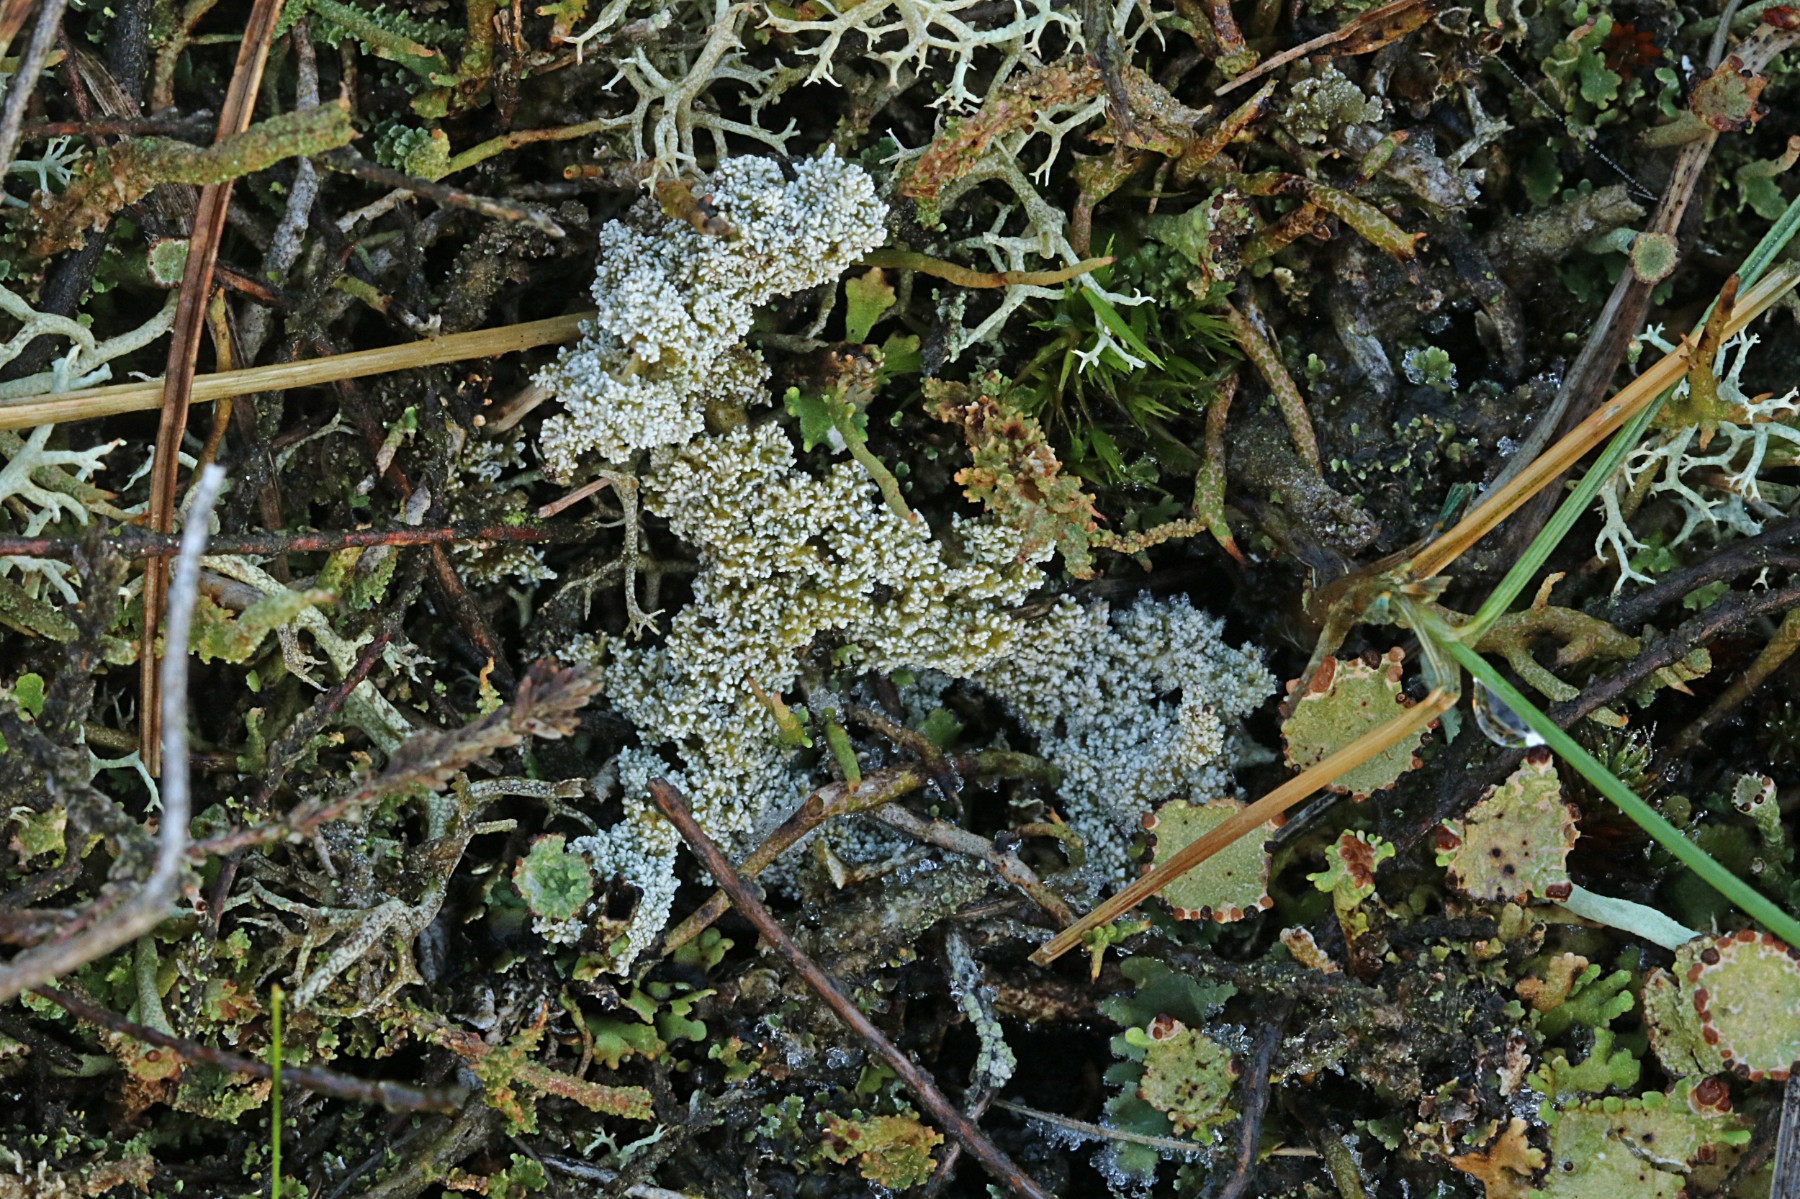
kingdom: Fungi
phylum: Ascomycota
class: Lecanoromycetes
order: Lecanorales
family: Stereocaulaceae
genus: Stereocaulon
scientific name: Stereocaulon saxatile
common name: klit-korallav
